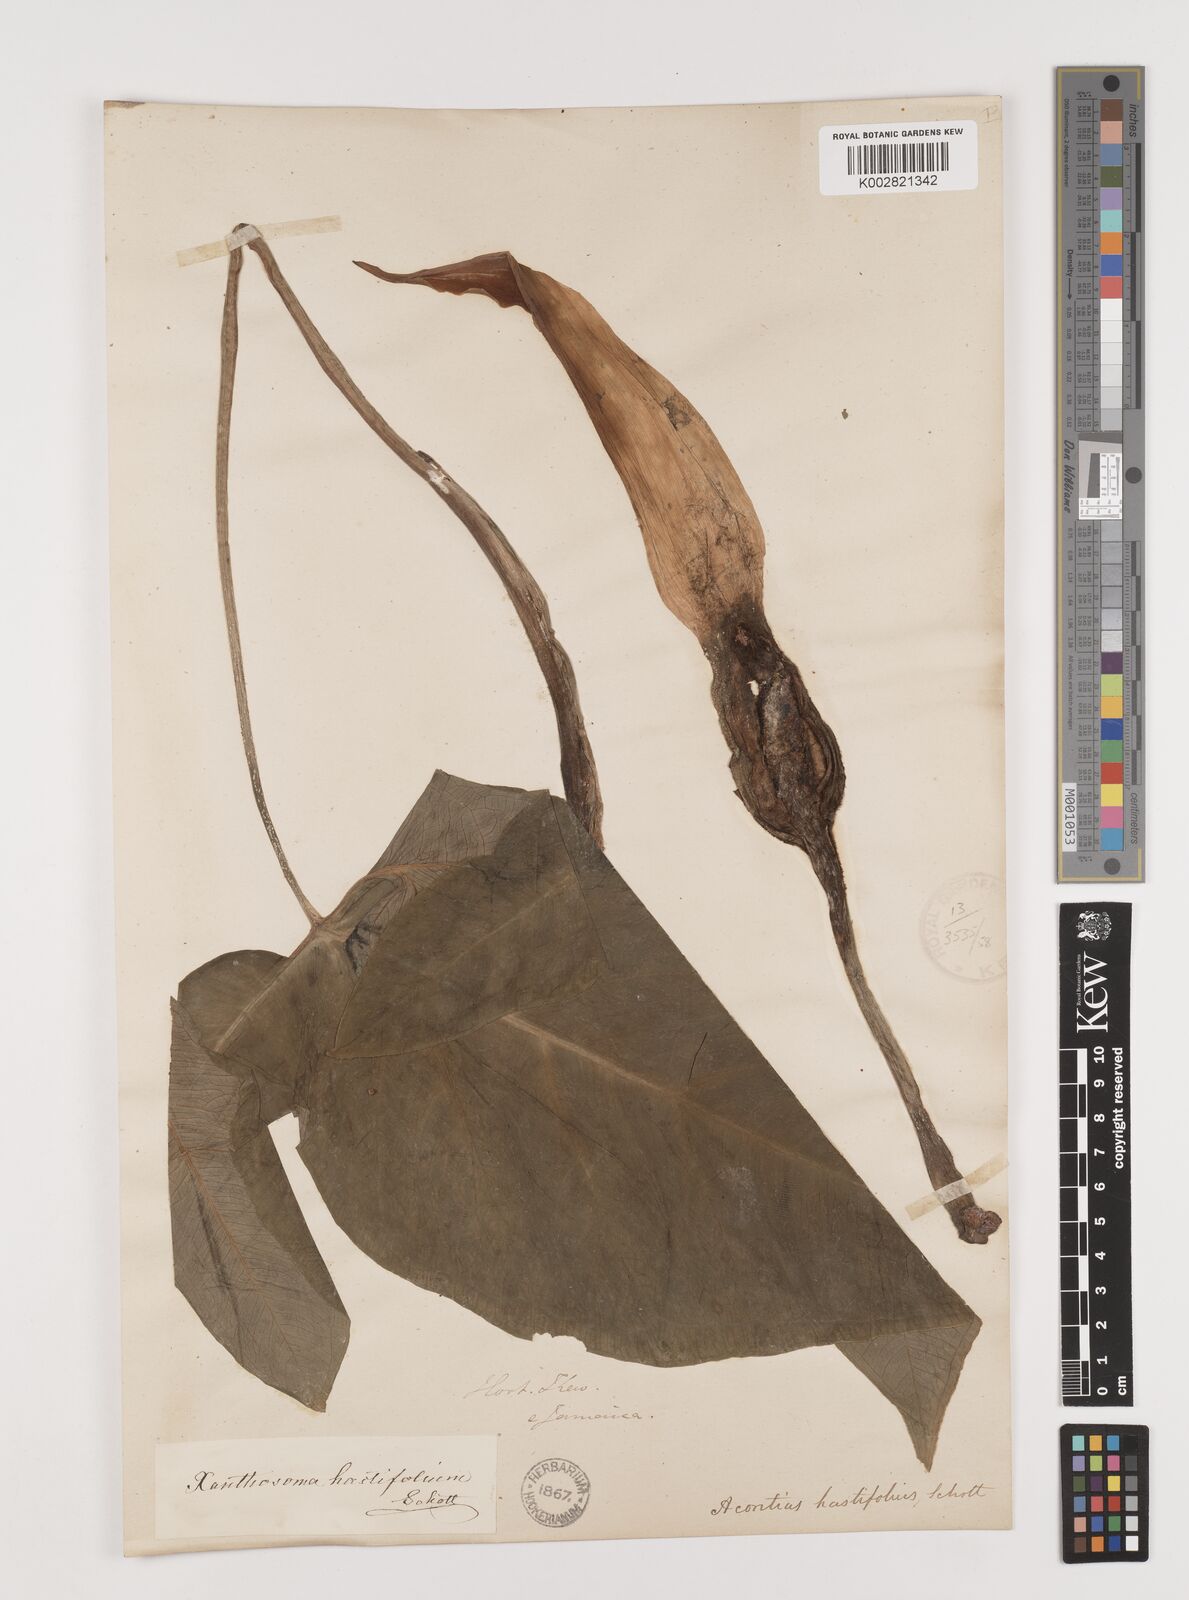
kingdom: Plantae
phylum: Tracheophyta
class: Liliopsida
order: Alismatales
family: Araceae
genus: Xanthosoma
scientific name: Xanthosoma brasiliense
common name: Tahitian-spinach
